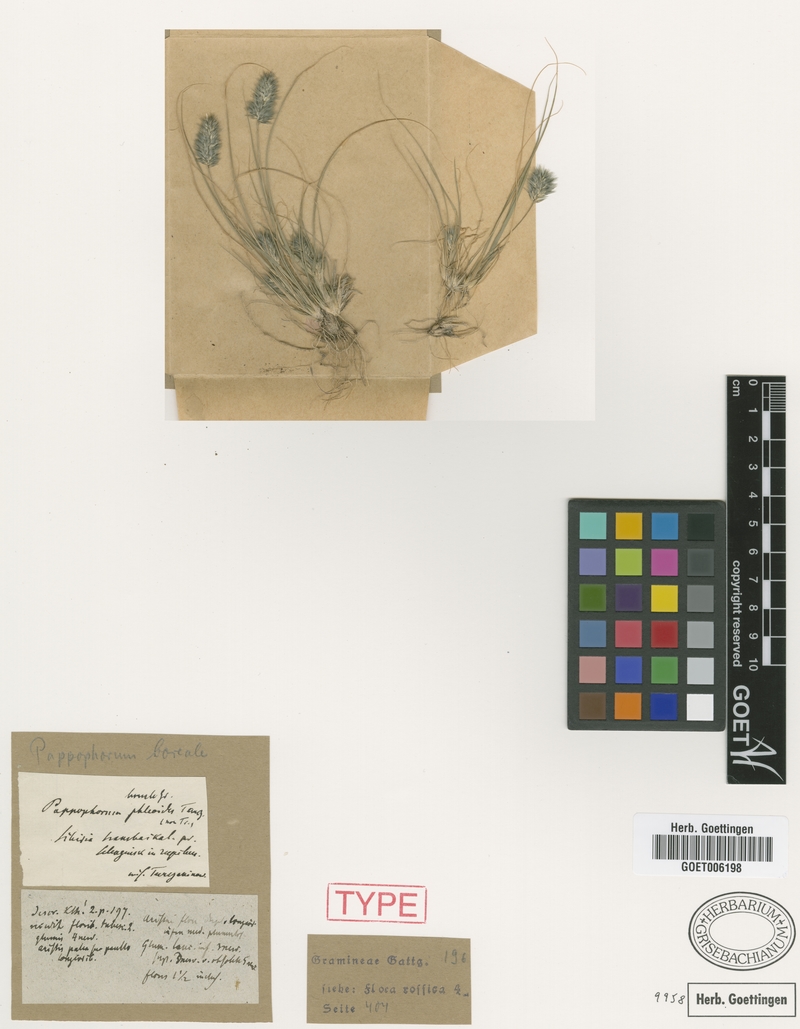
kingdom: Plantae
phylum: Tracheophyta
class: Liliopsida
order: Poales
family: Poaceae
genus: Enneapogon
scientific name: Enneapogon desvauxii
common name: Feather pappus grass
